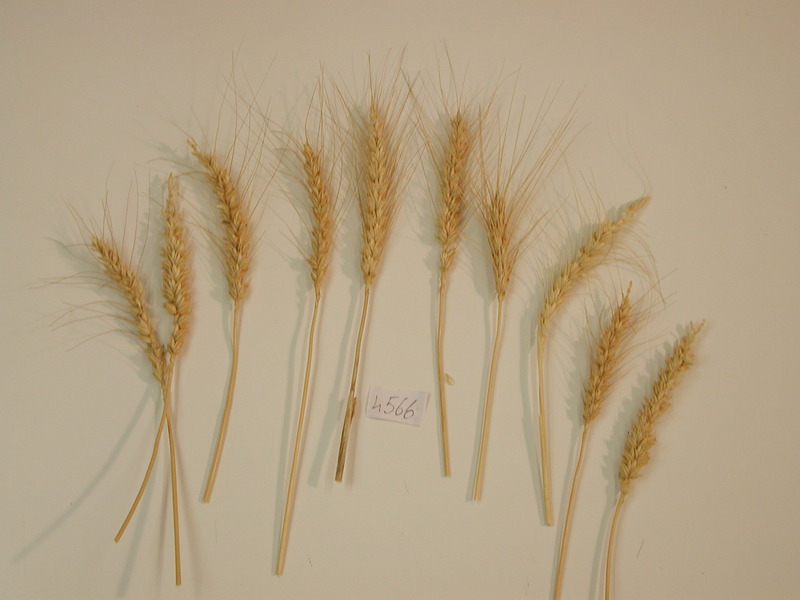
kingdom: Plantae
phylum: Tracheophyta
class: Liliopsida
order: Poales
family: Poaceae
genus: Triticum
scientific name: Triticum
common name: Wheat
